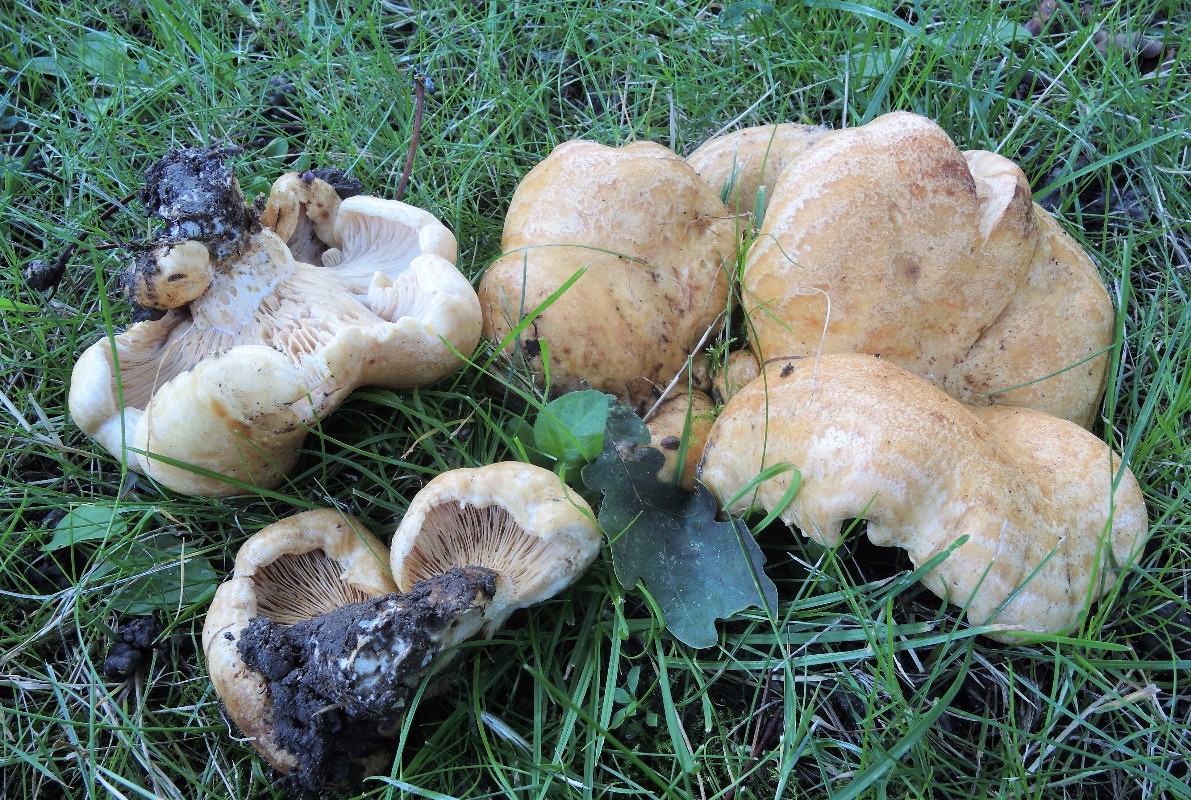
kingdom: Fungi
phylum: Basidiomycota
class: Agaricomycetes
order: Russulales
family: Russulaceae
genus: Lactarius
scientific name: Lactarius acerrimus
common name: brændende mælkehat
